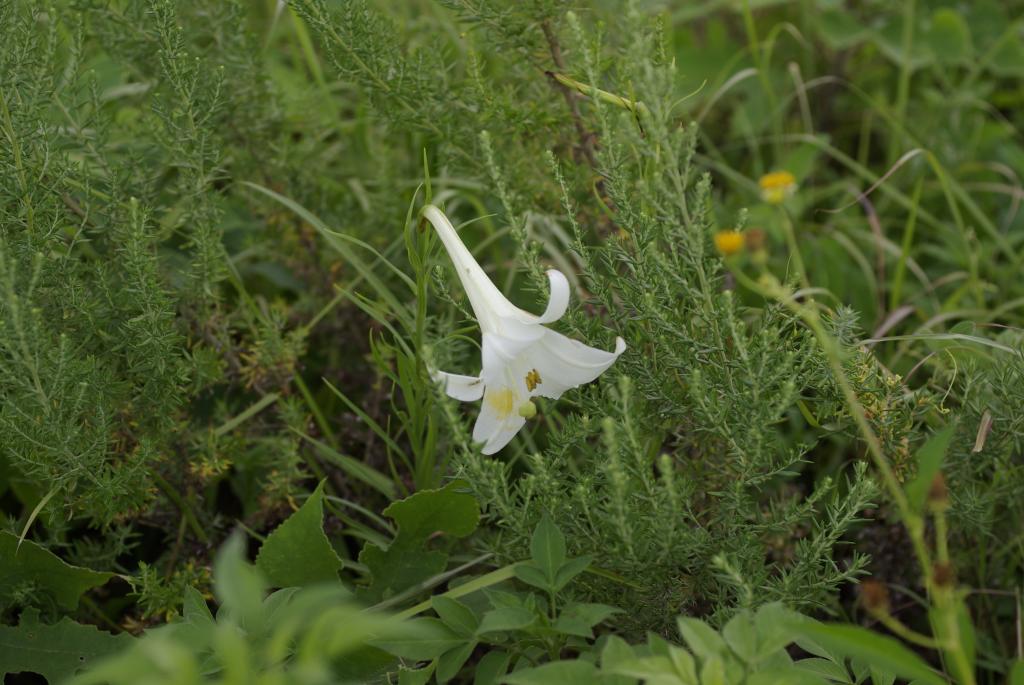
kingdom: Plantae
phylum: Tracheophyta
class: Liliopsida
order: Liliales
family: Liliaceae
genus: Lilium
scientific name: Lilium formosanum
